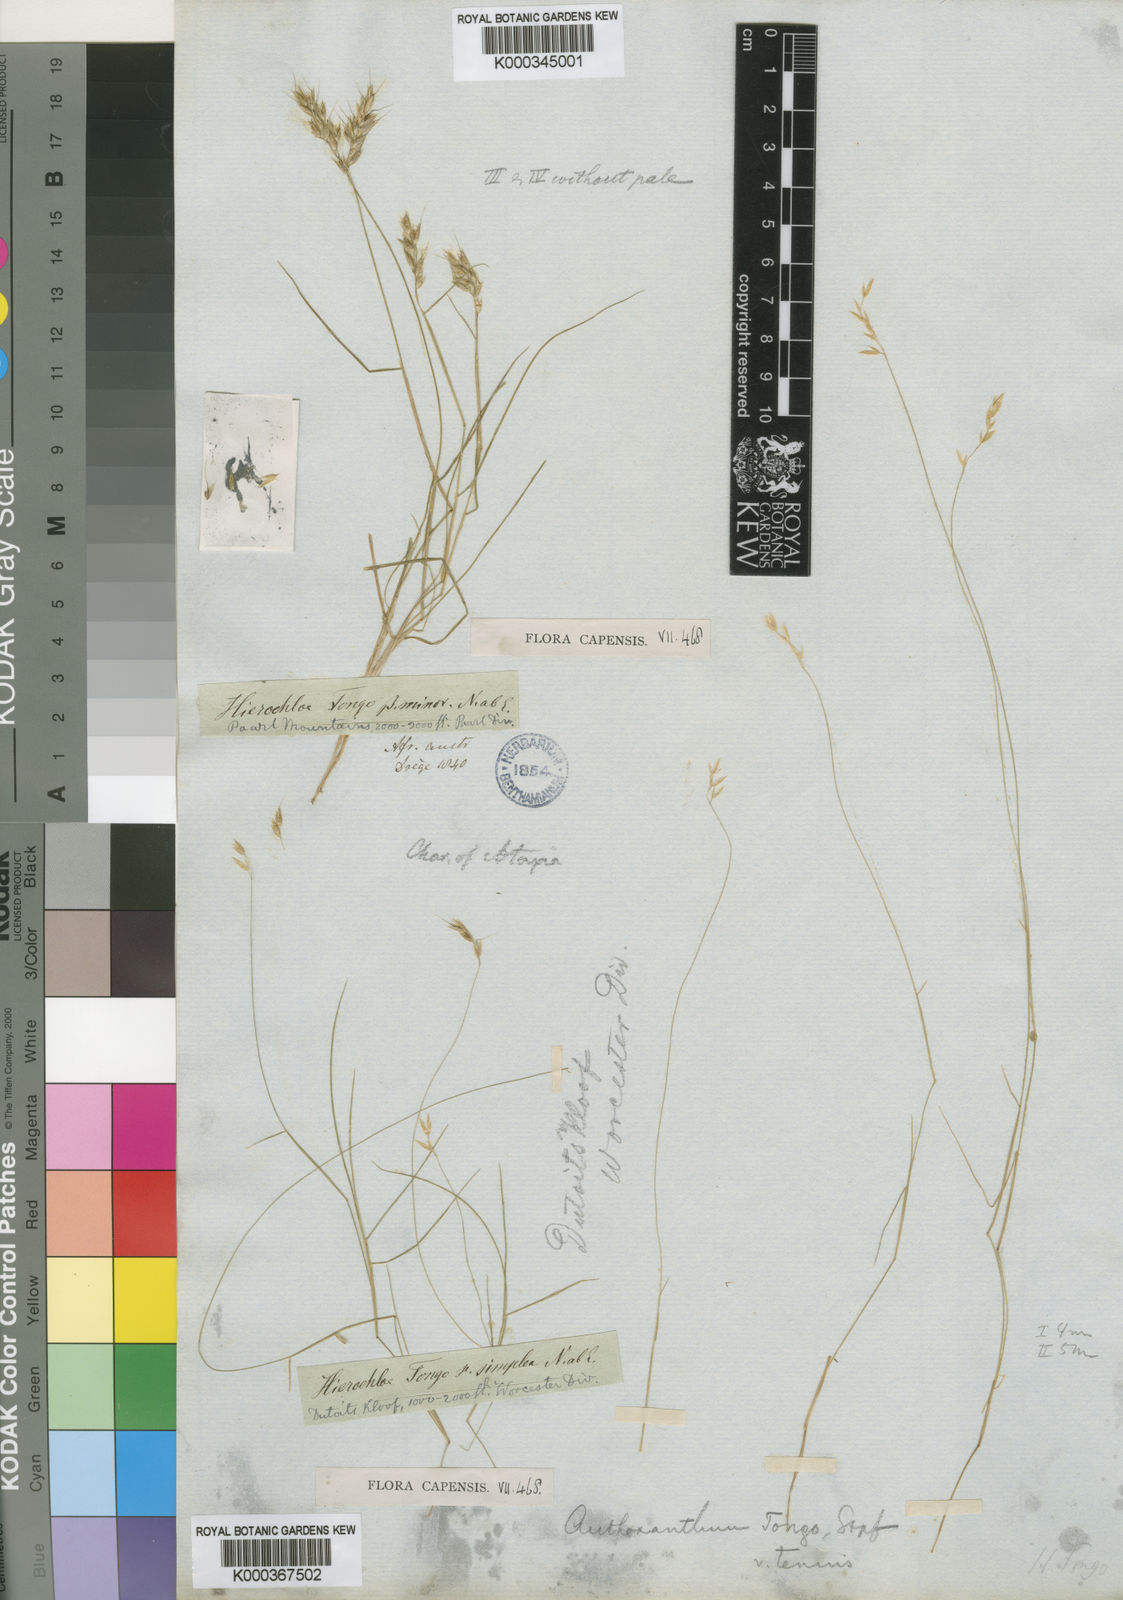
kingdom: Plantae
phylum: Tracheophyta
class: Liliopsida
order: Poales
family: Poaceae
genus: Anthoxanthum
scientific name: Anthoxanthum tongo
